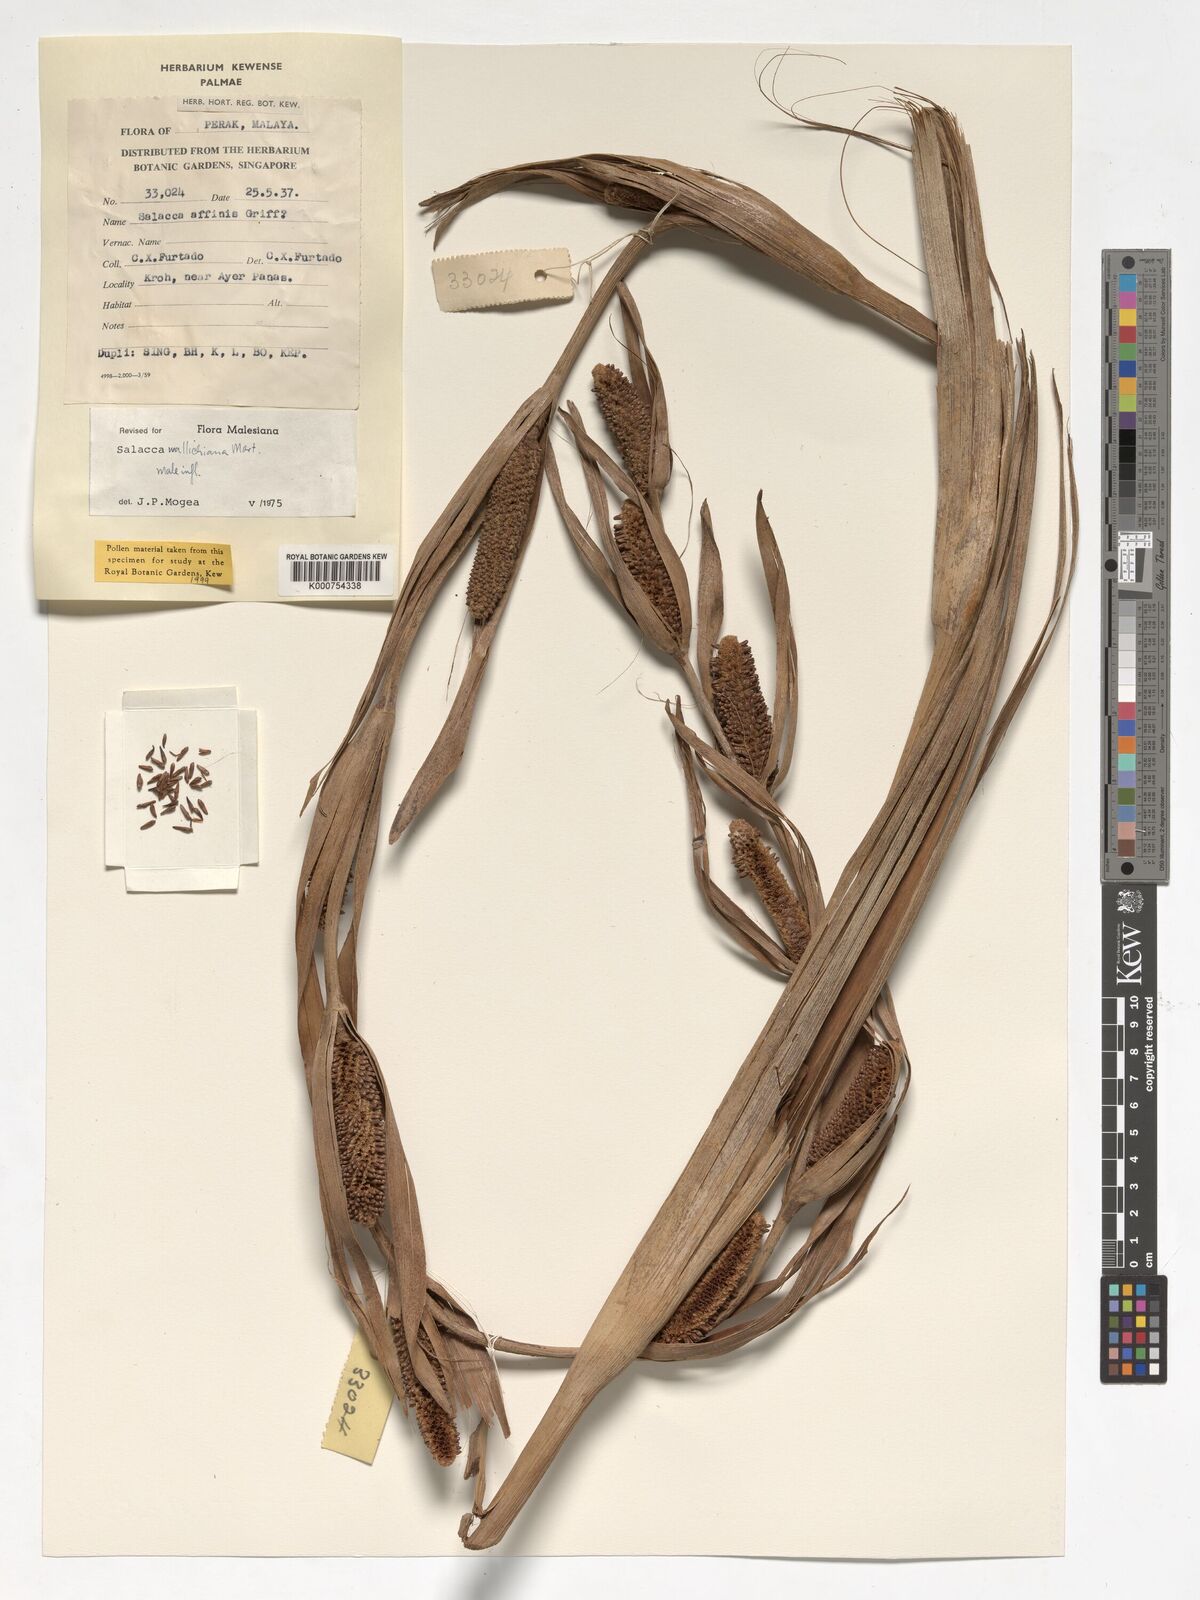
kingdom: Plantae
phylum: Tracheophyta
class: Liliopsida
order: Arecales
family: Arecaceae
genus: Salacca
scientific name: Salacca wallichiana
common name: Rakum palm
